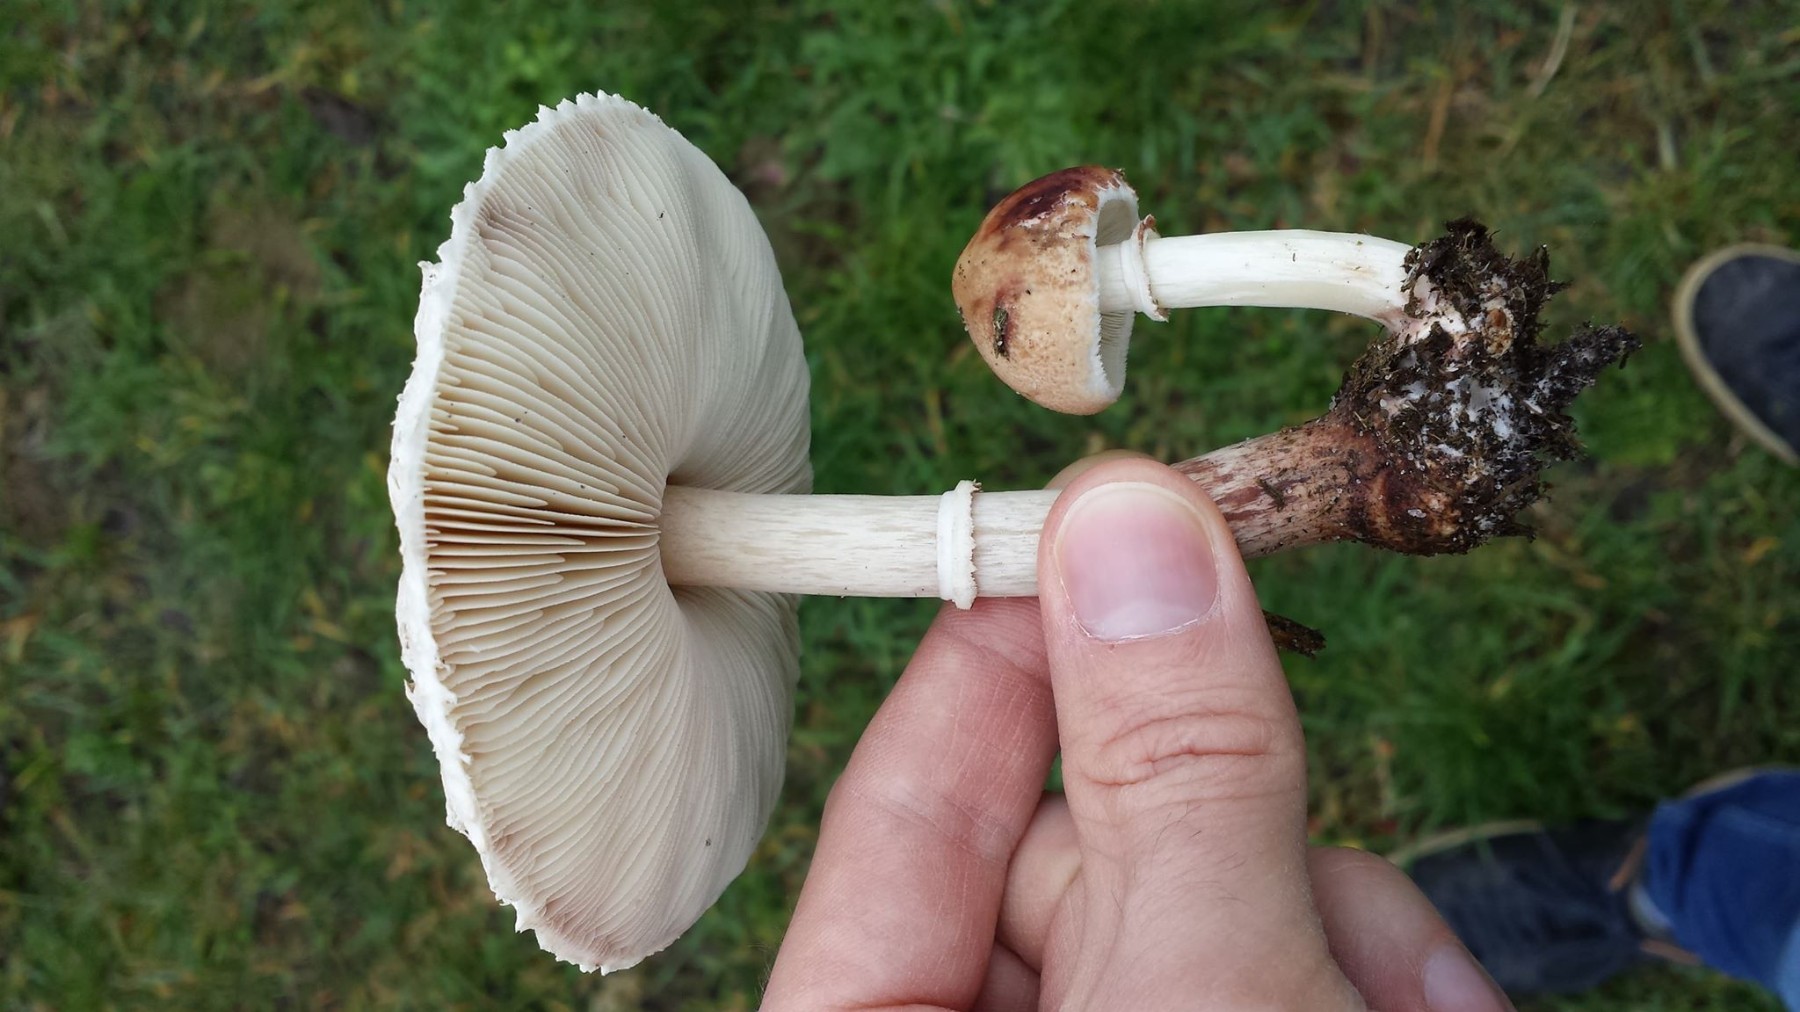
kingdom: Fungi
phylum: Basidiomycota
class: Agaricomycetes
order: Agaricales
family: Agaricaceae
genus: Macrolepiota
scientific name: Macrolepiota excoriata
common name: mark-kæmpeparasolhat
